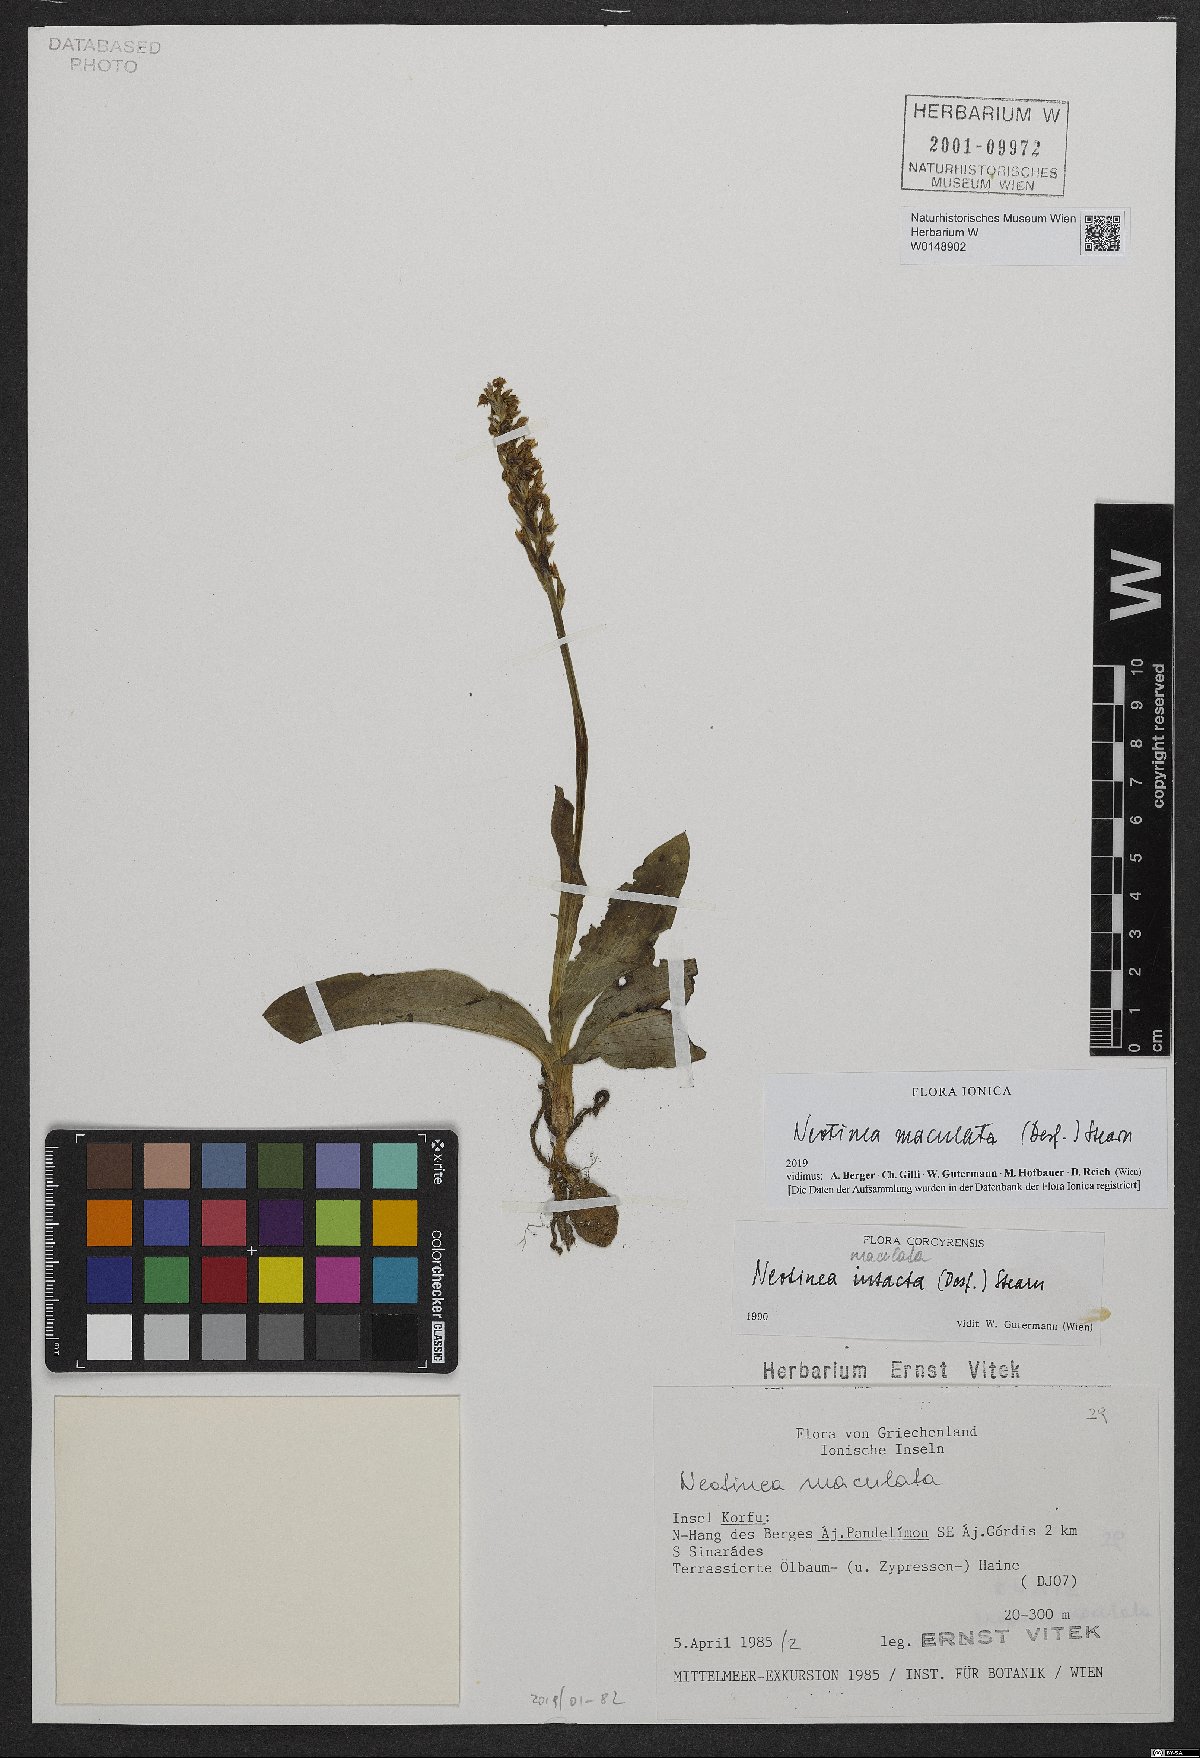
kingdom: Plantae
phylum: Tracheophyta
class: Liliopsida
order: Asparagales
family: Orchidaceae
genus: Neotinea
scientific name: Neotinea maculata
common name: Dense-flowered orchid
